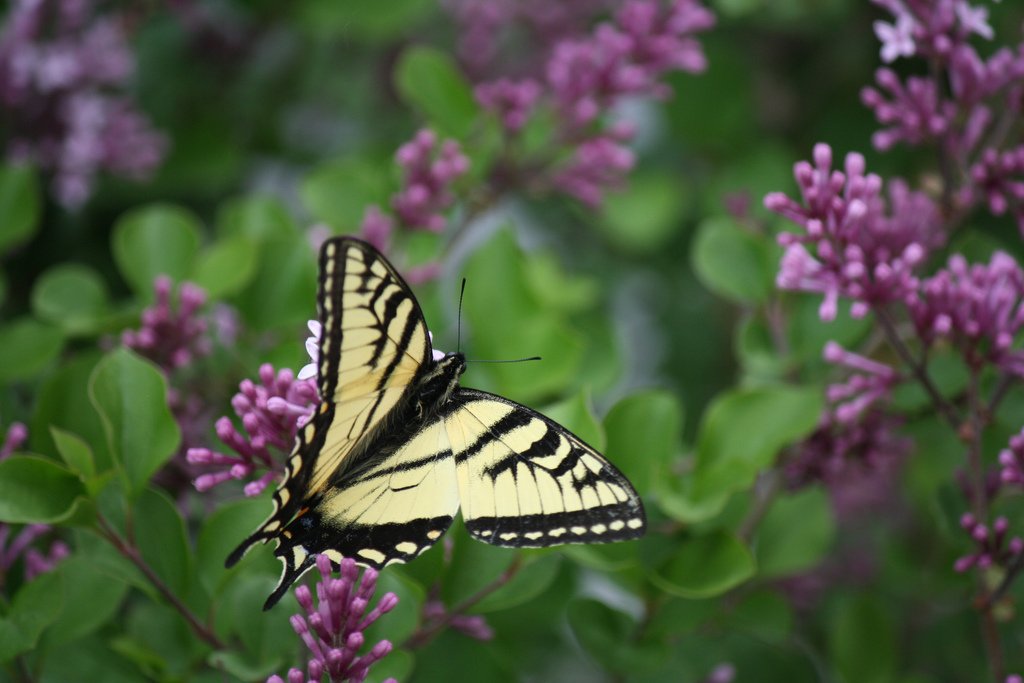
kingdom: Animalia
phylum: Arthropoda
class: Insecta
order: Lepidoptera
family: Papilionidae
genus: Pterourus
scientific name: Pterourus canadensis
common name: Canadian Tiger Swallowtail
